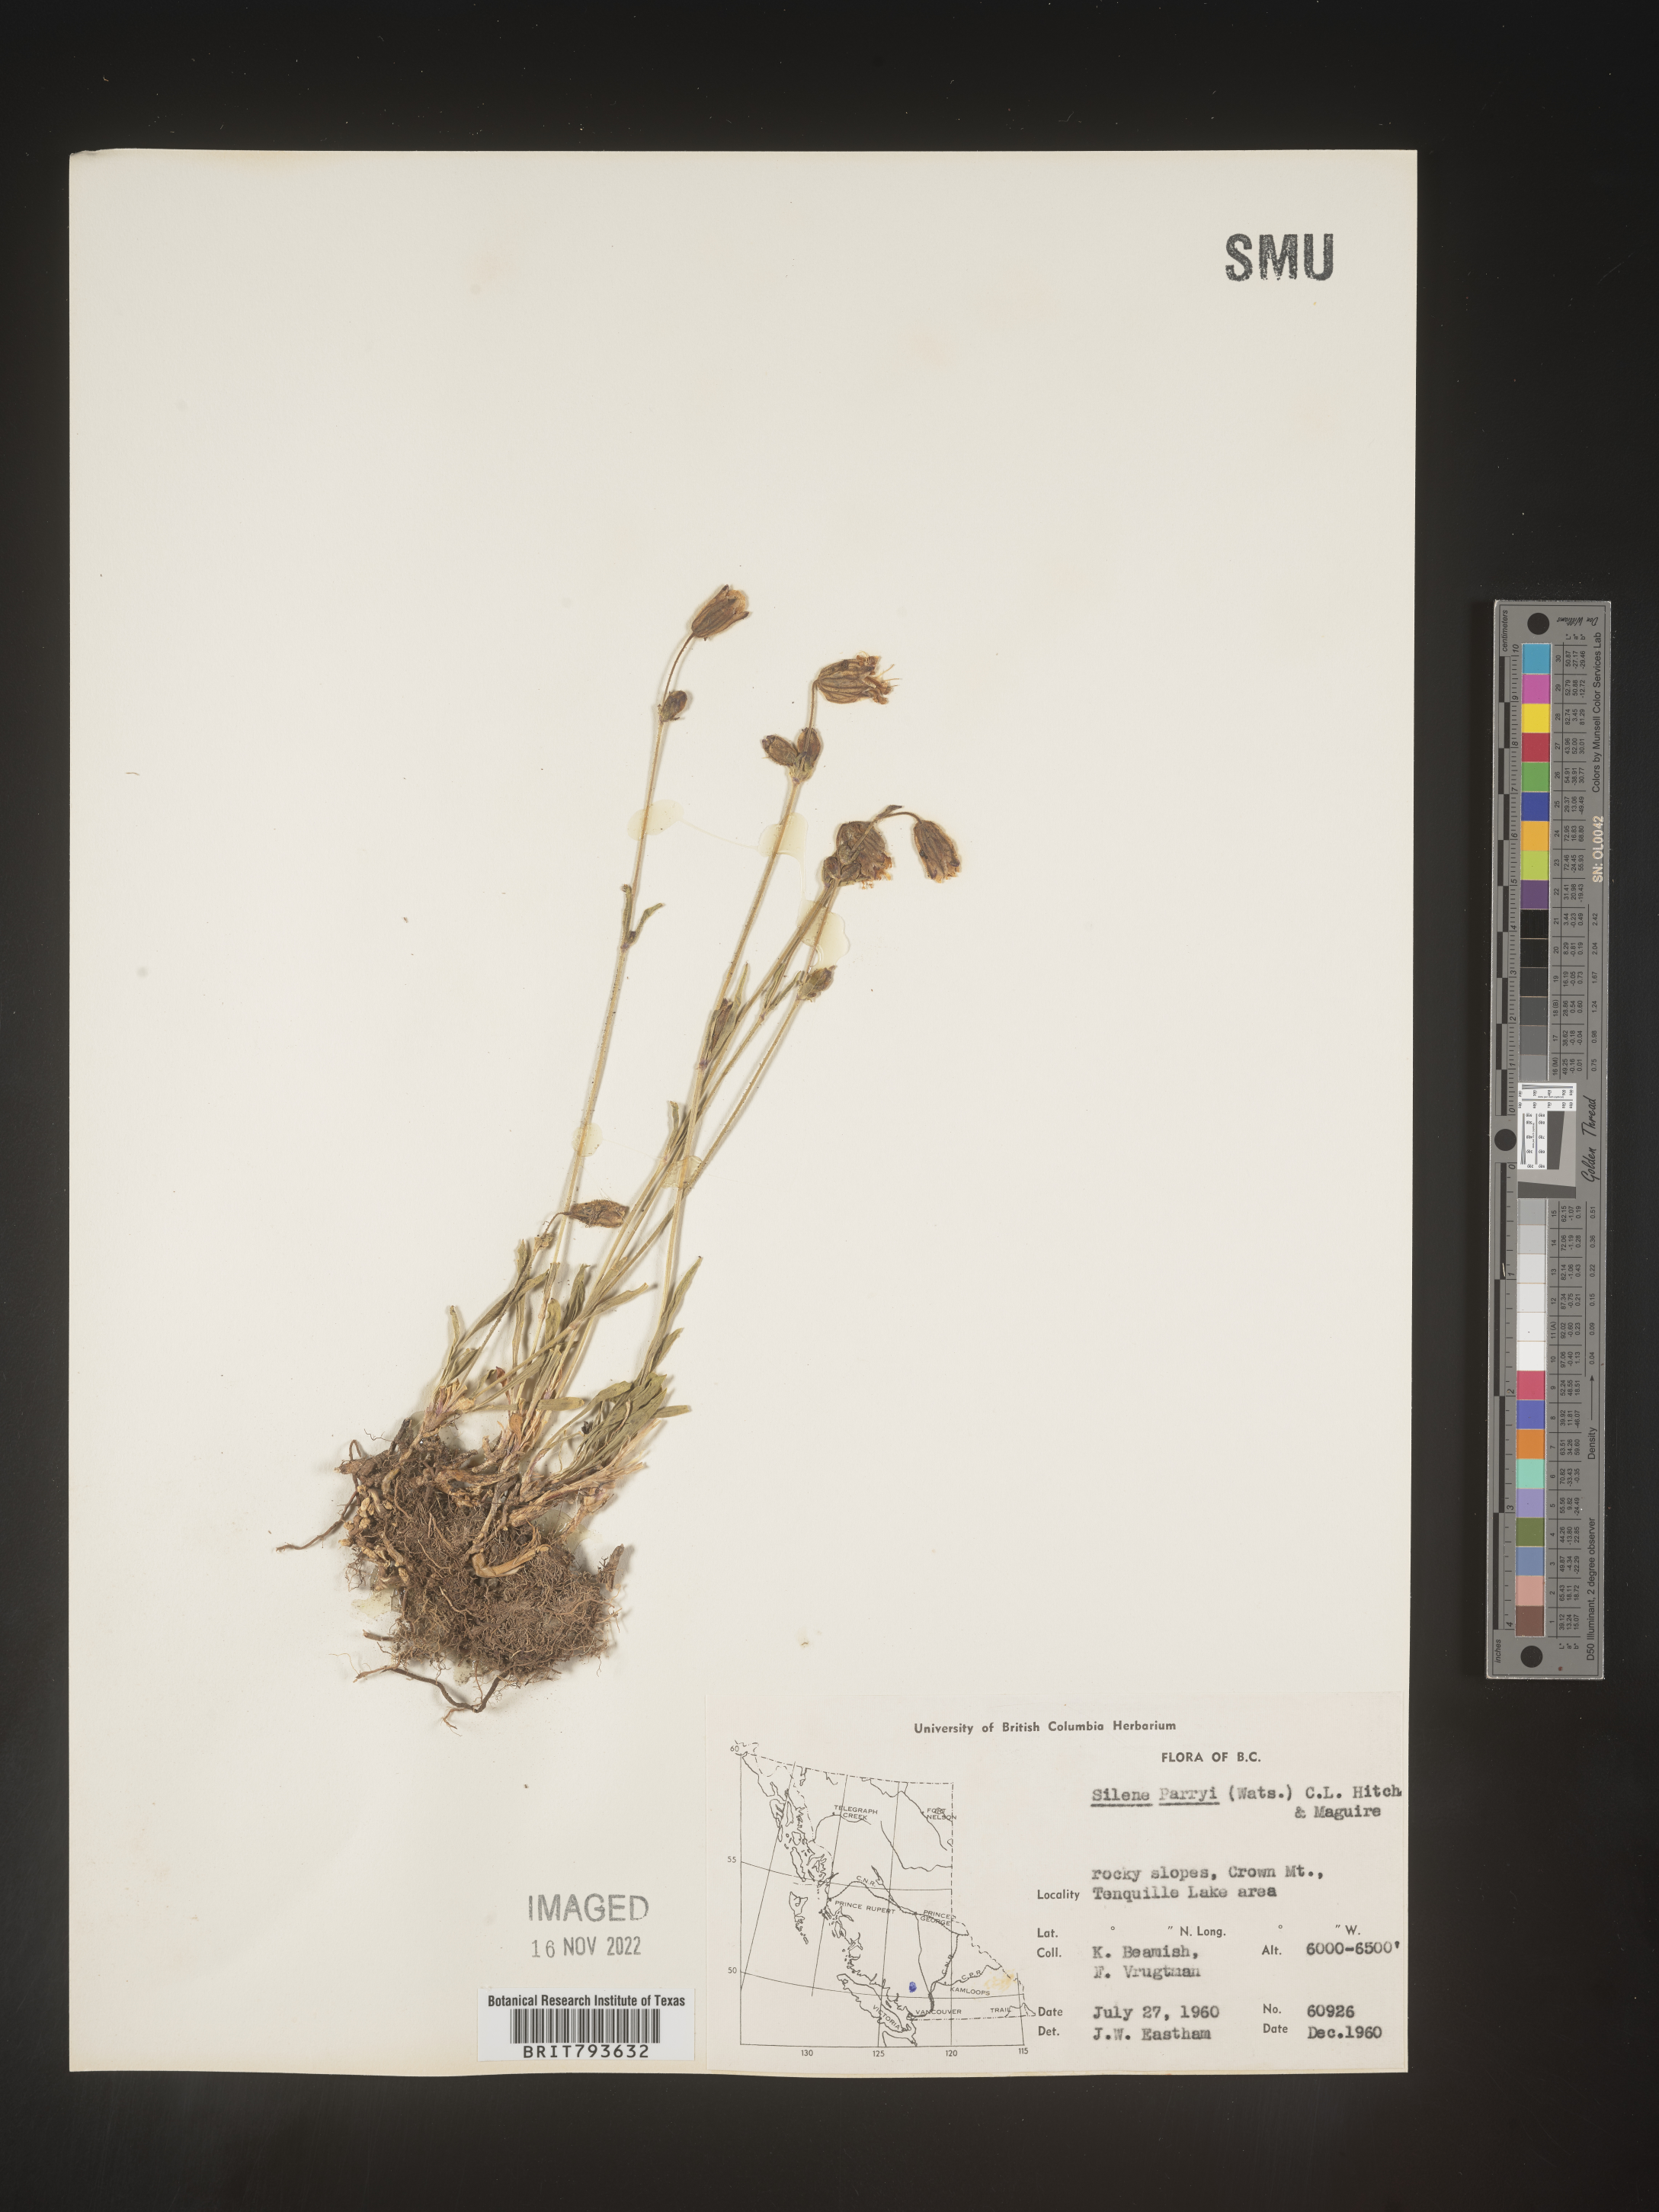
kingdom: Plantae
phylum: Tracheophyta
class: Magnoliopsida
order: Caryophyllales
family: Caryophyllaceae
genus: Silene
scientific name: Silene parryi
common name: Parry's campion
